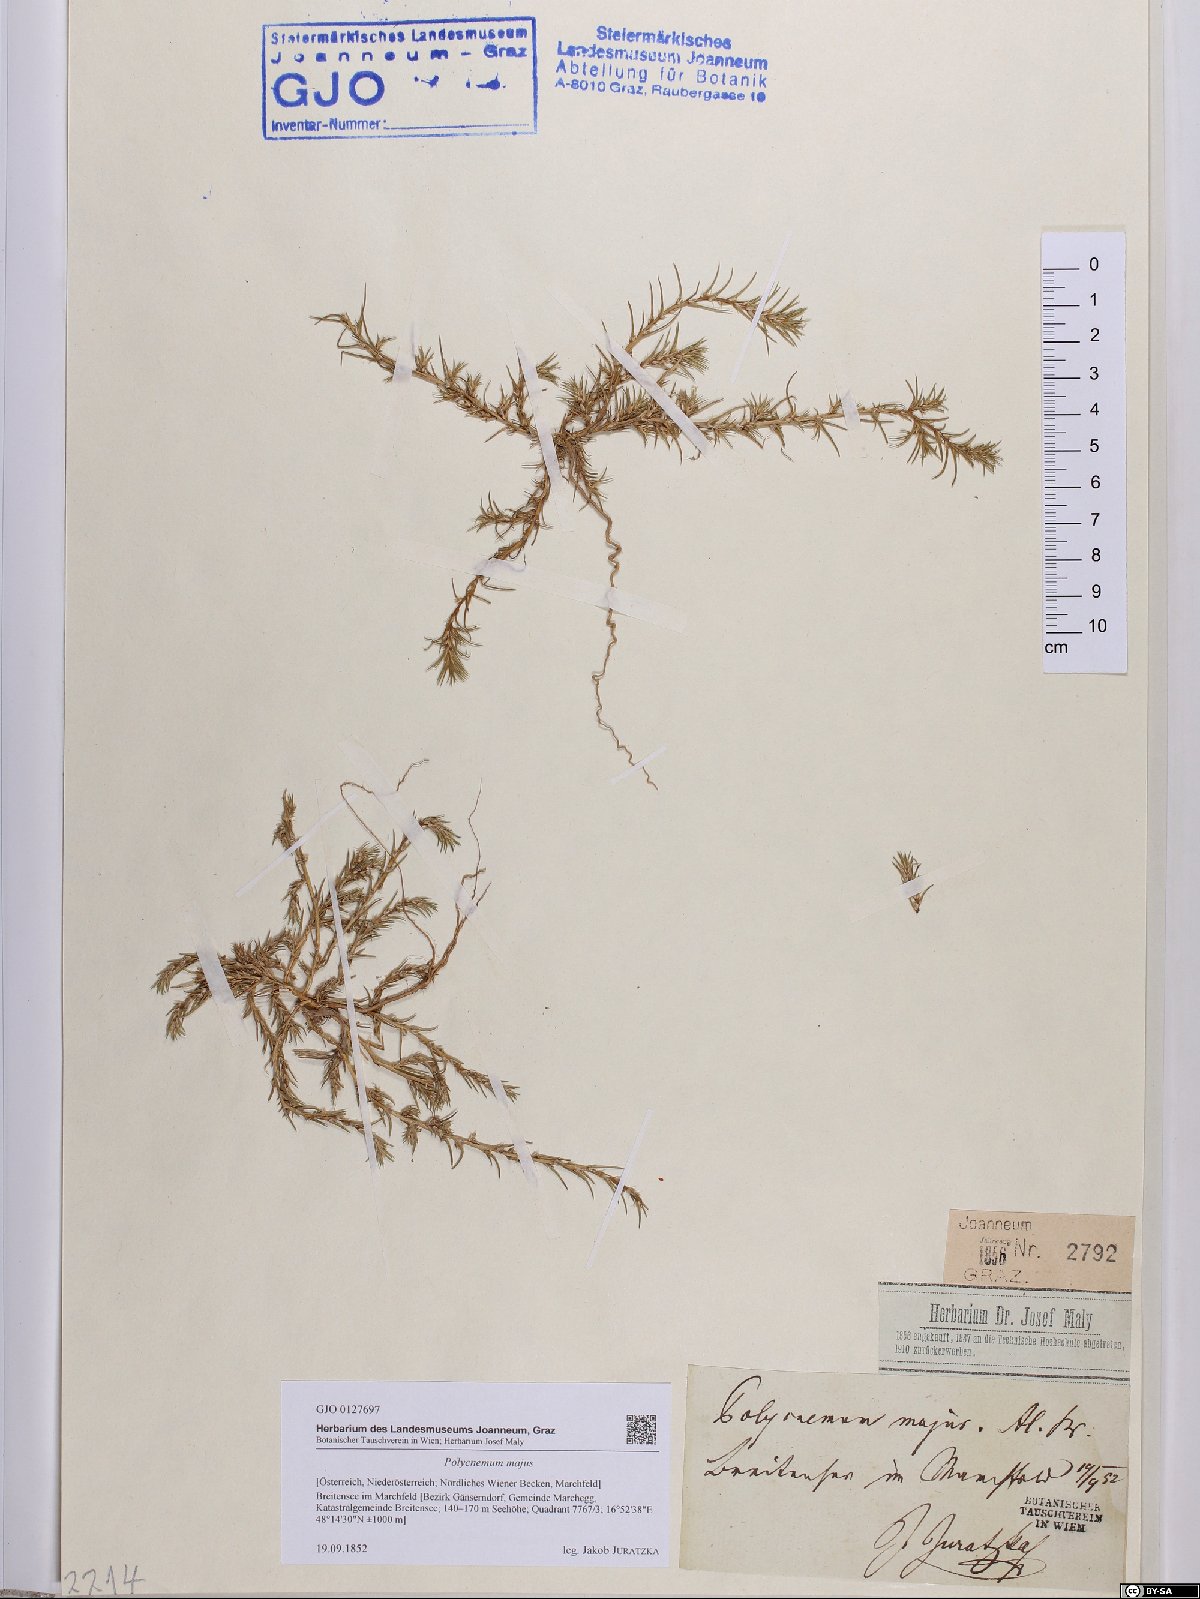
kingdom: Plantae
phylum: Tracheophyta
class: Magnoliopsida
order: Caryophyllales
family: Amaranthaceae
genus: Polycnemum
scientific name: Polycnemum majus
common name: Giant needleleaf
